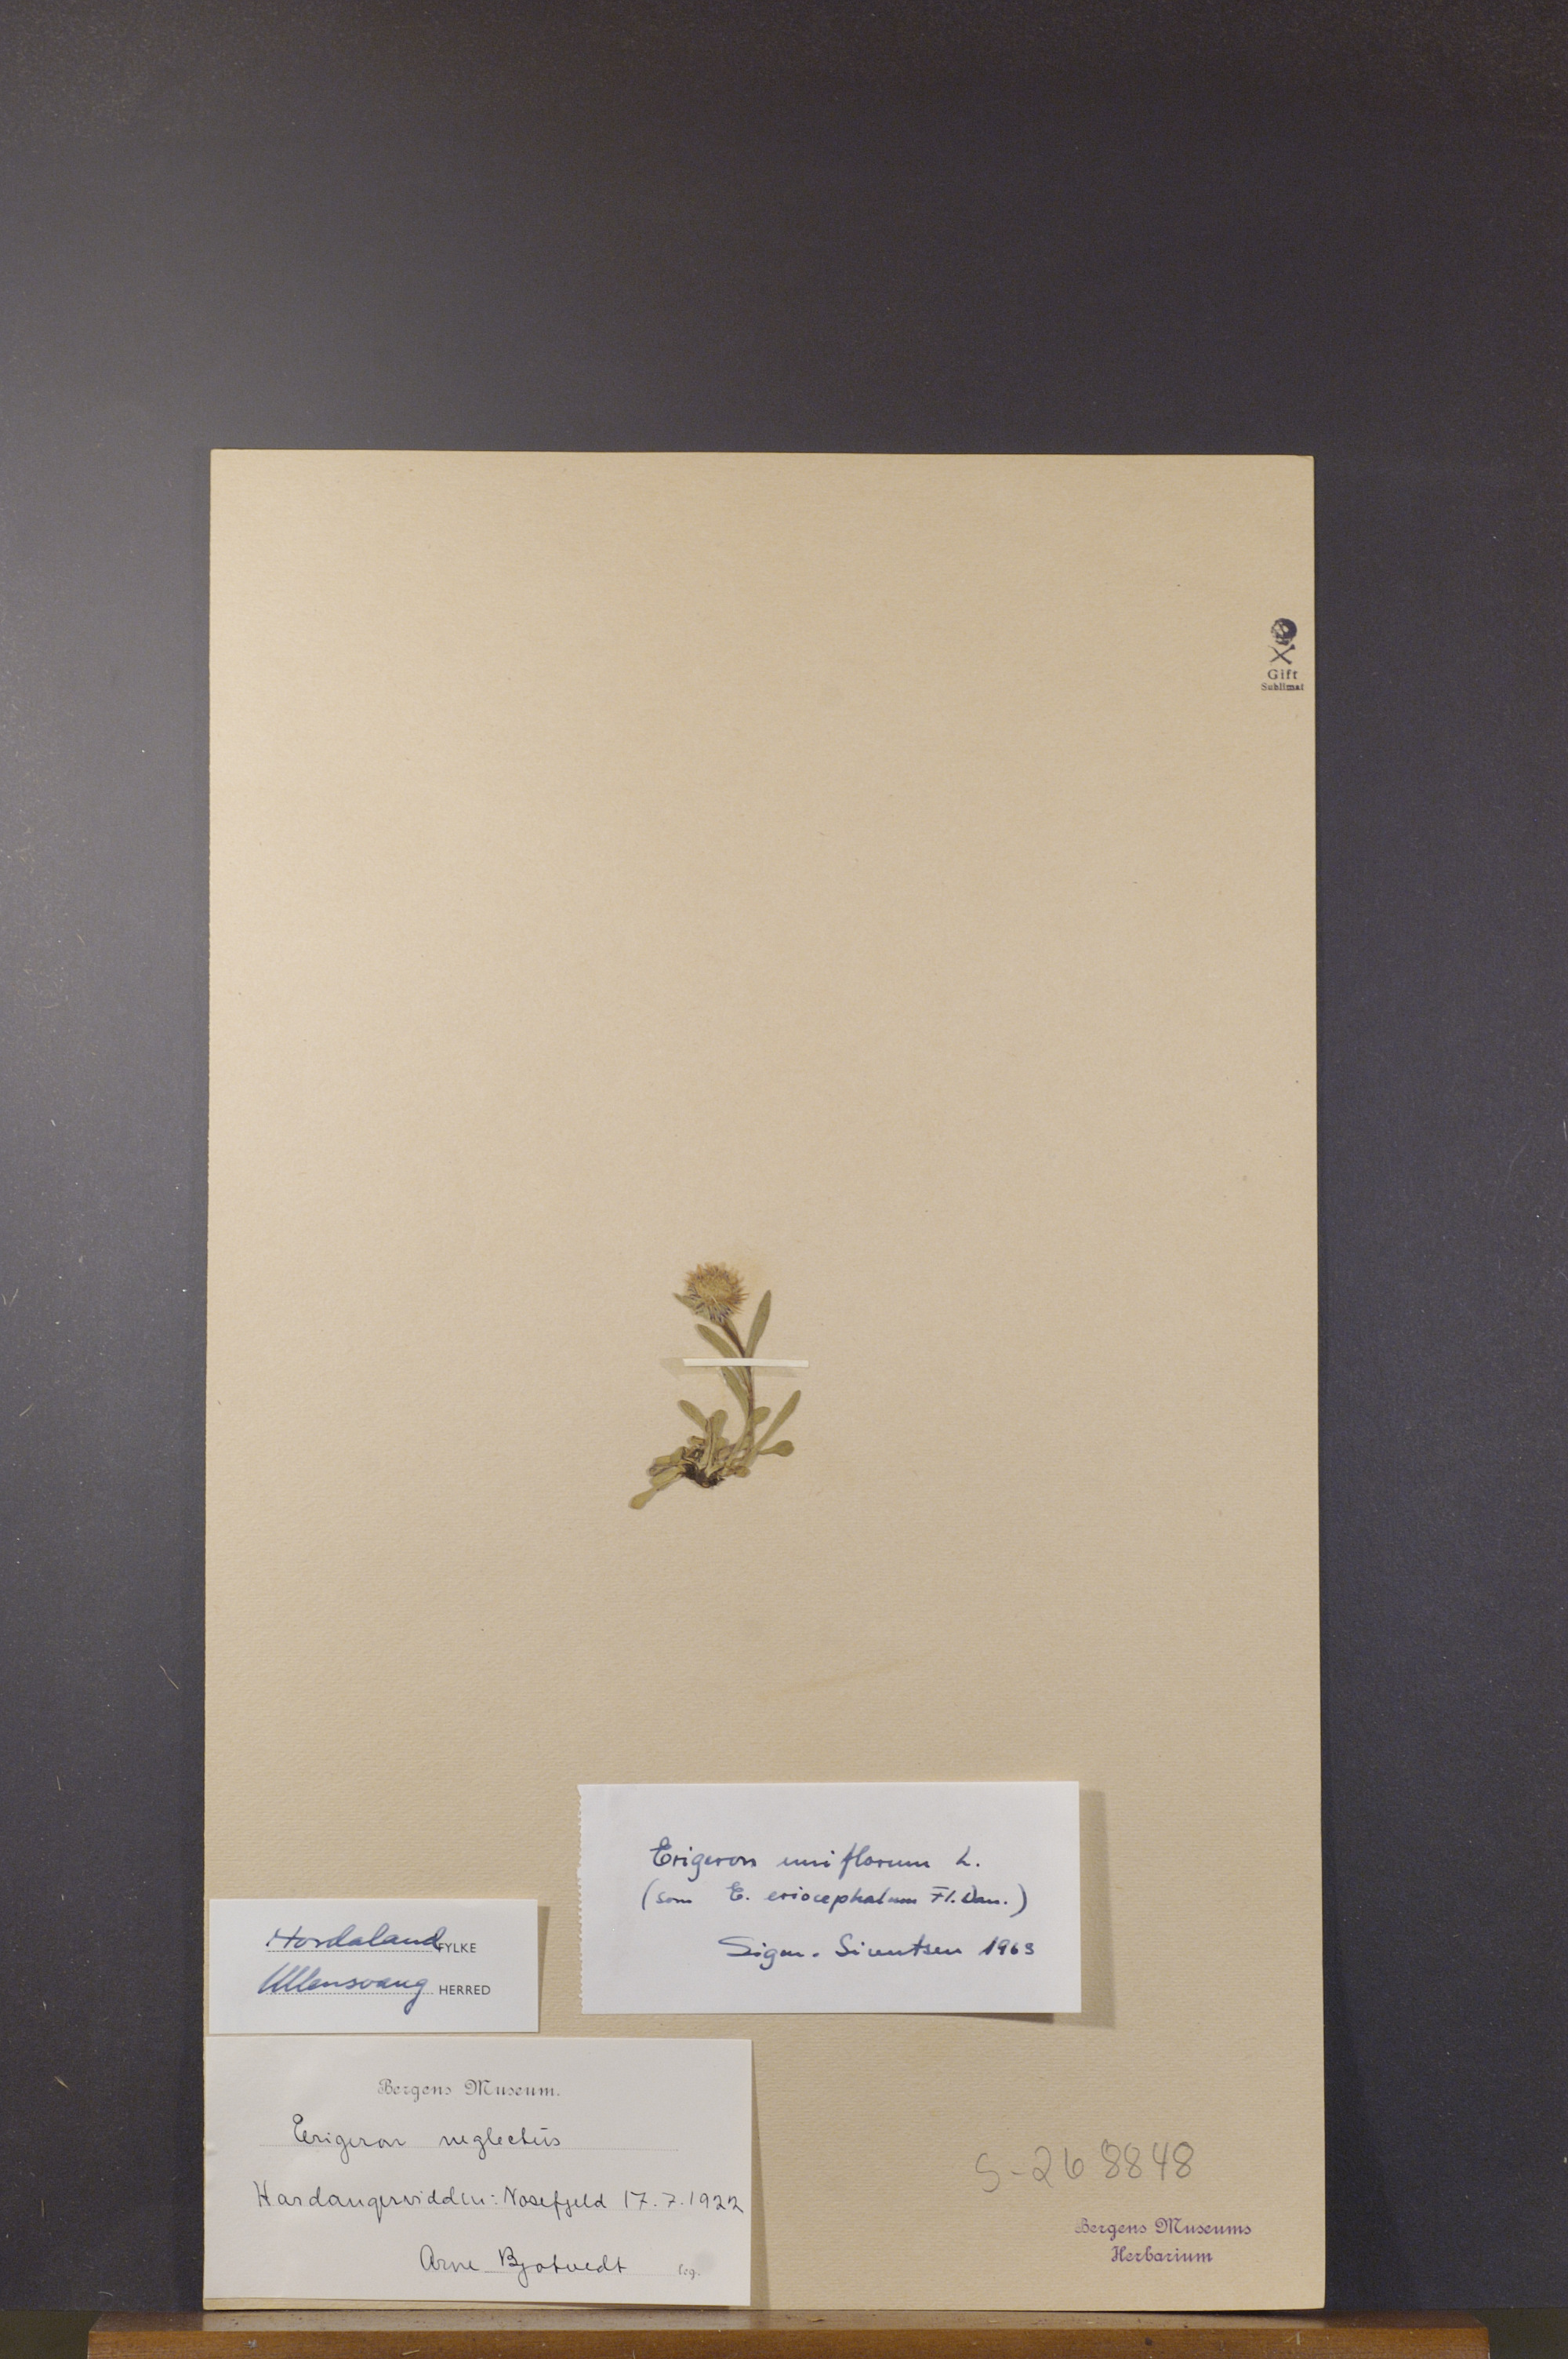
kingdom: Plantae
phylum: Tracheophyta
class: Magnoliopsida
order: Asterales
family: Asteraceae
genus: Erigeron
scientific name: Erigeron uniflorus
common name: Northern daisy
